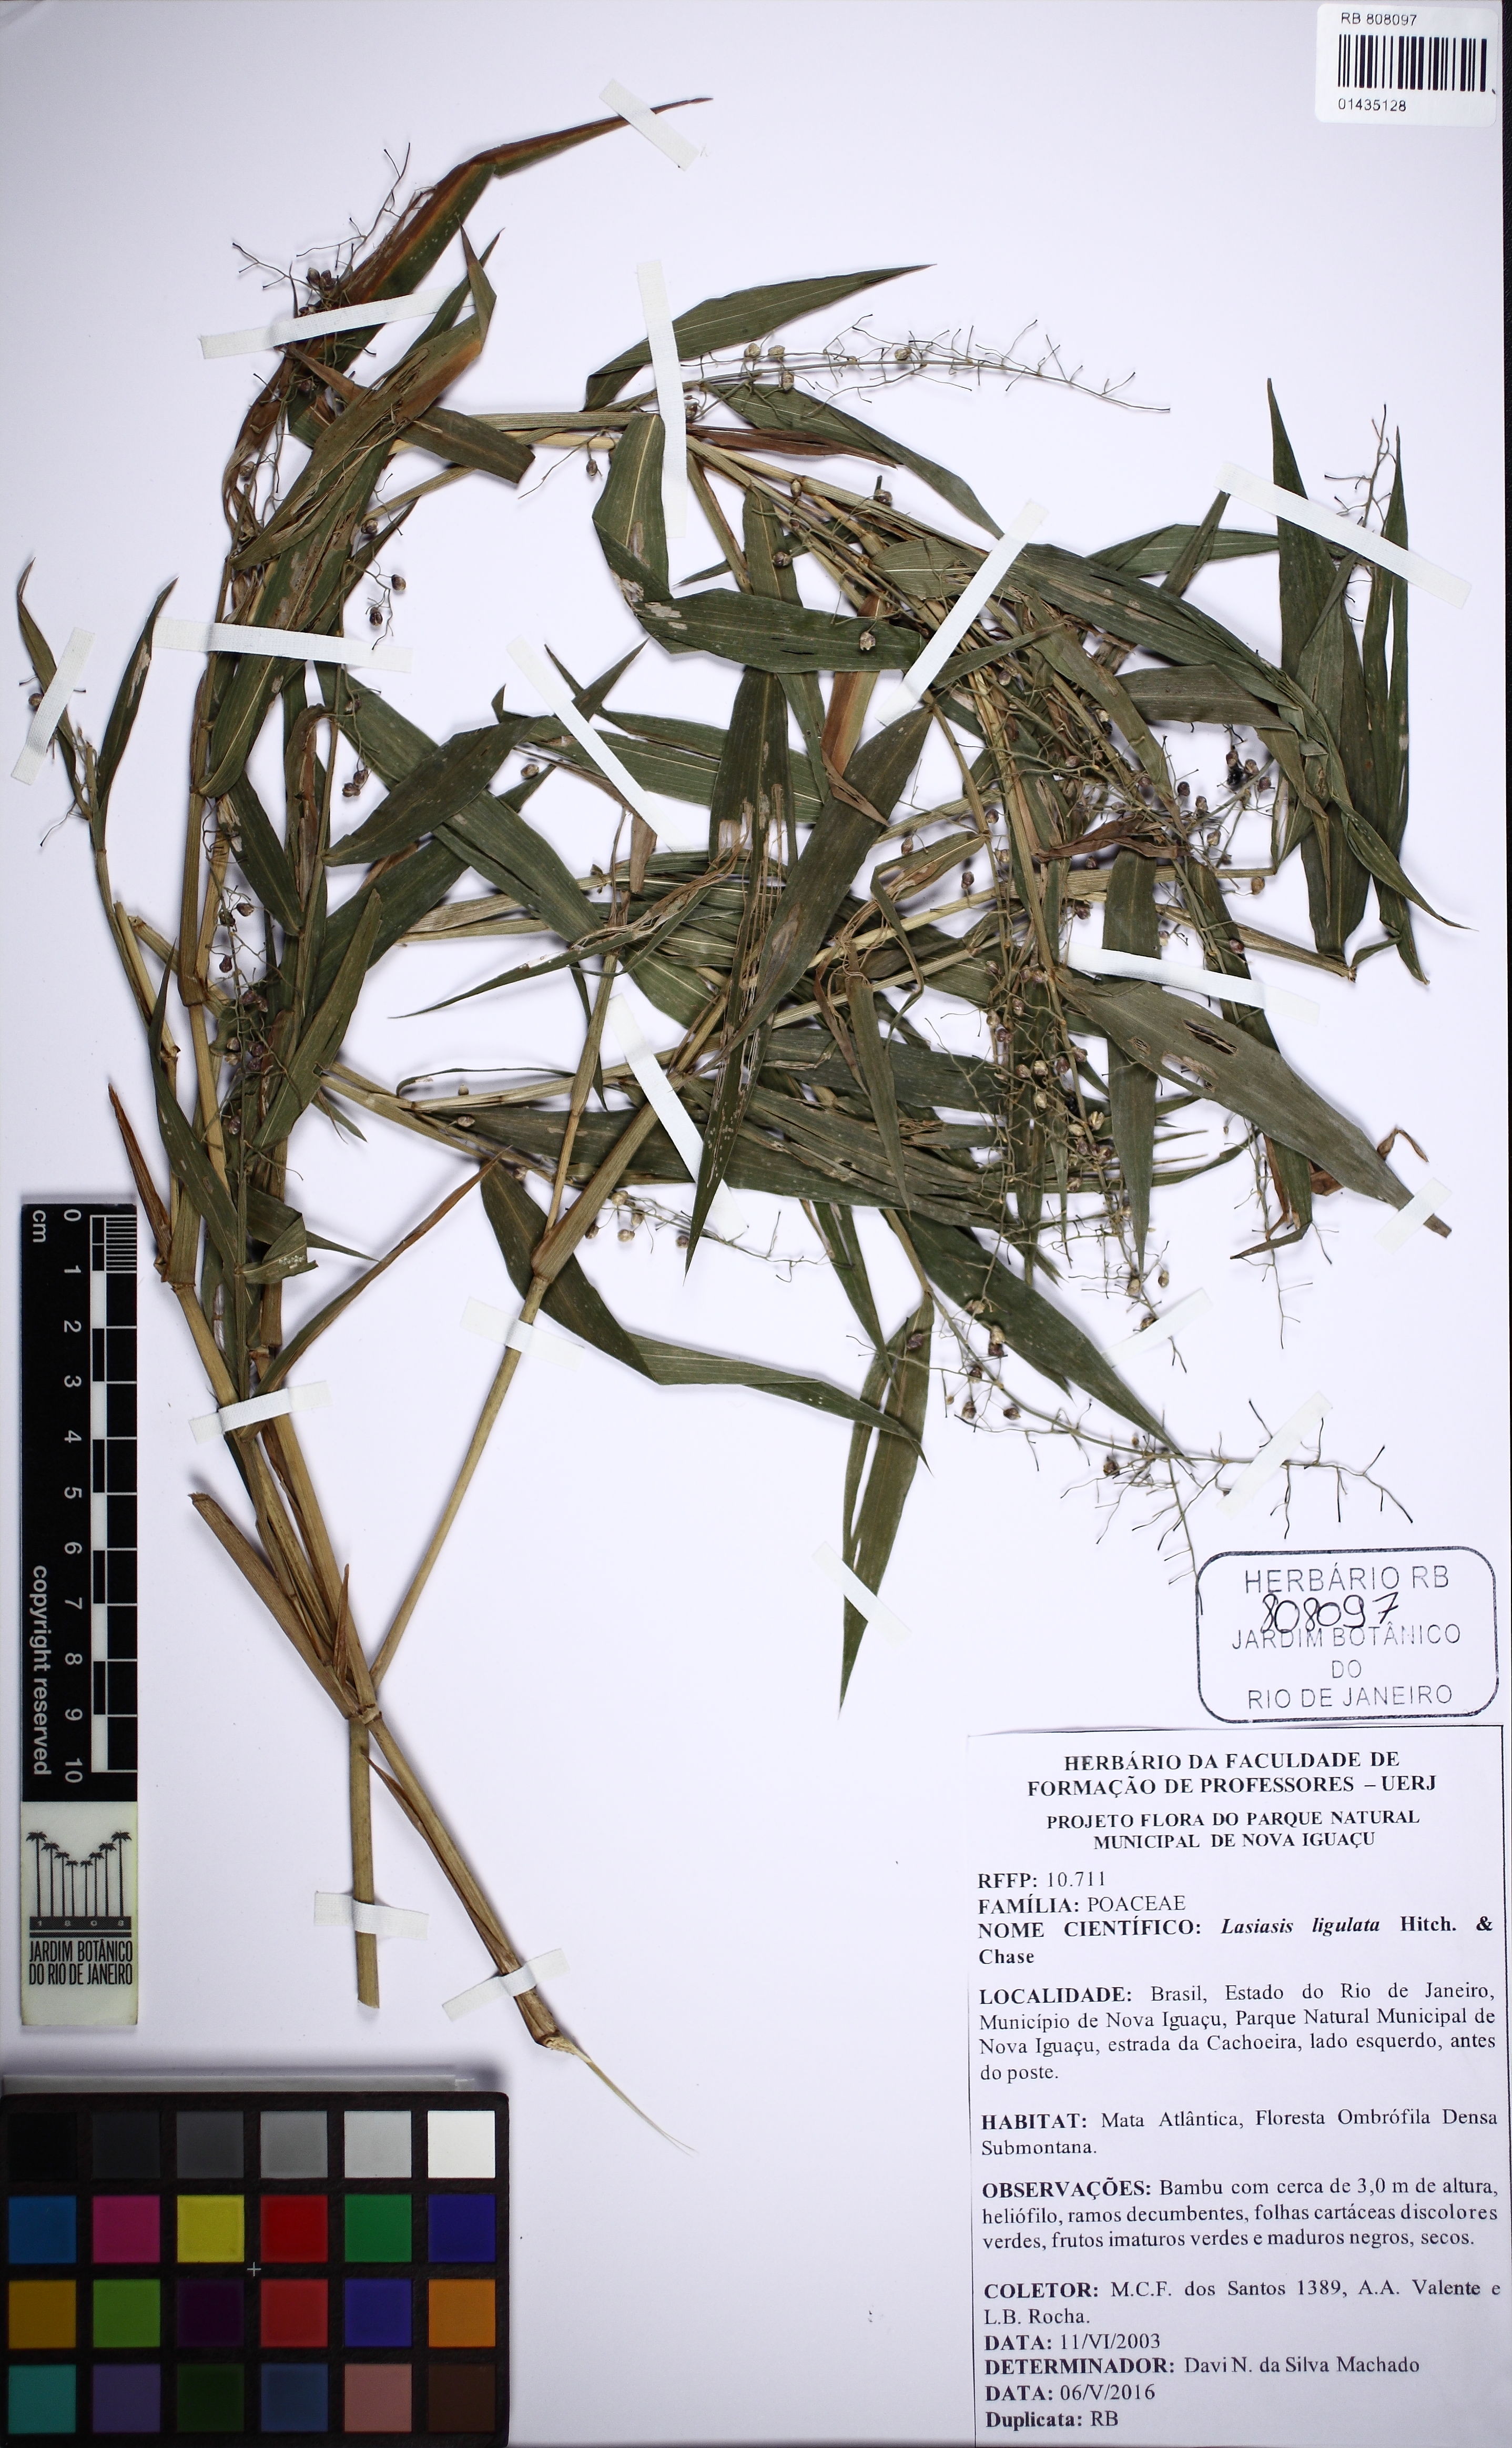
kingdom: Plantae
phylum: Tracheophyta
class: Liliopsida
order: Poales
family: Poaceae
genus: Lasiacis
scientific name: Lasiacis ligulata
